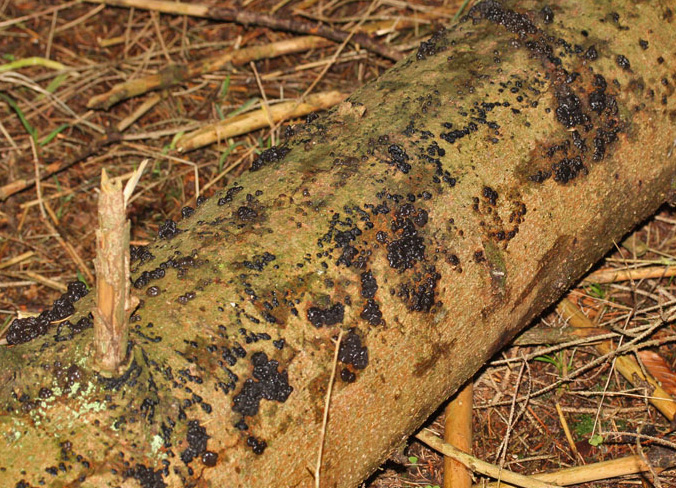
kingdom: Fungi
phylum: Basidiomycota
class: Agaricomycetes
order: Auriculariales
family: Auriculariaceae
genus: Exidia
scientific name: Exidia pithya
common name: gran-bævretop
